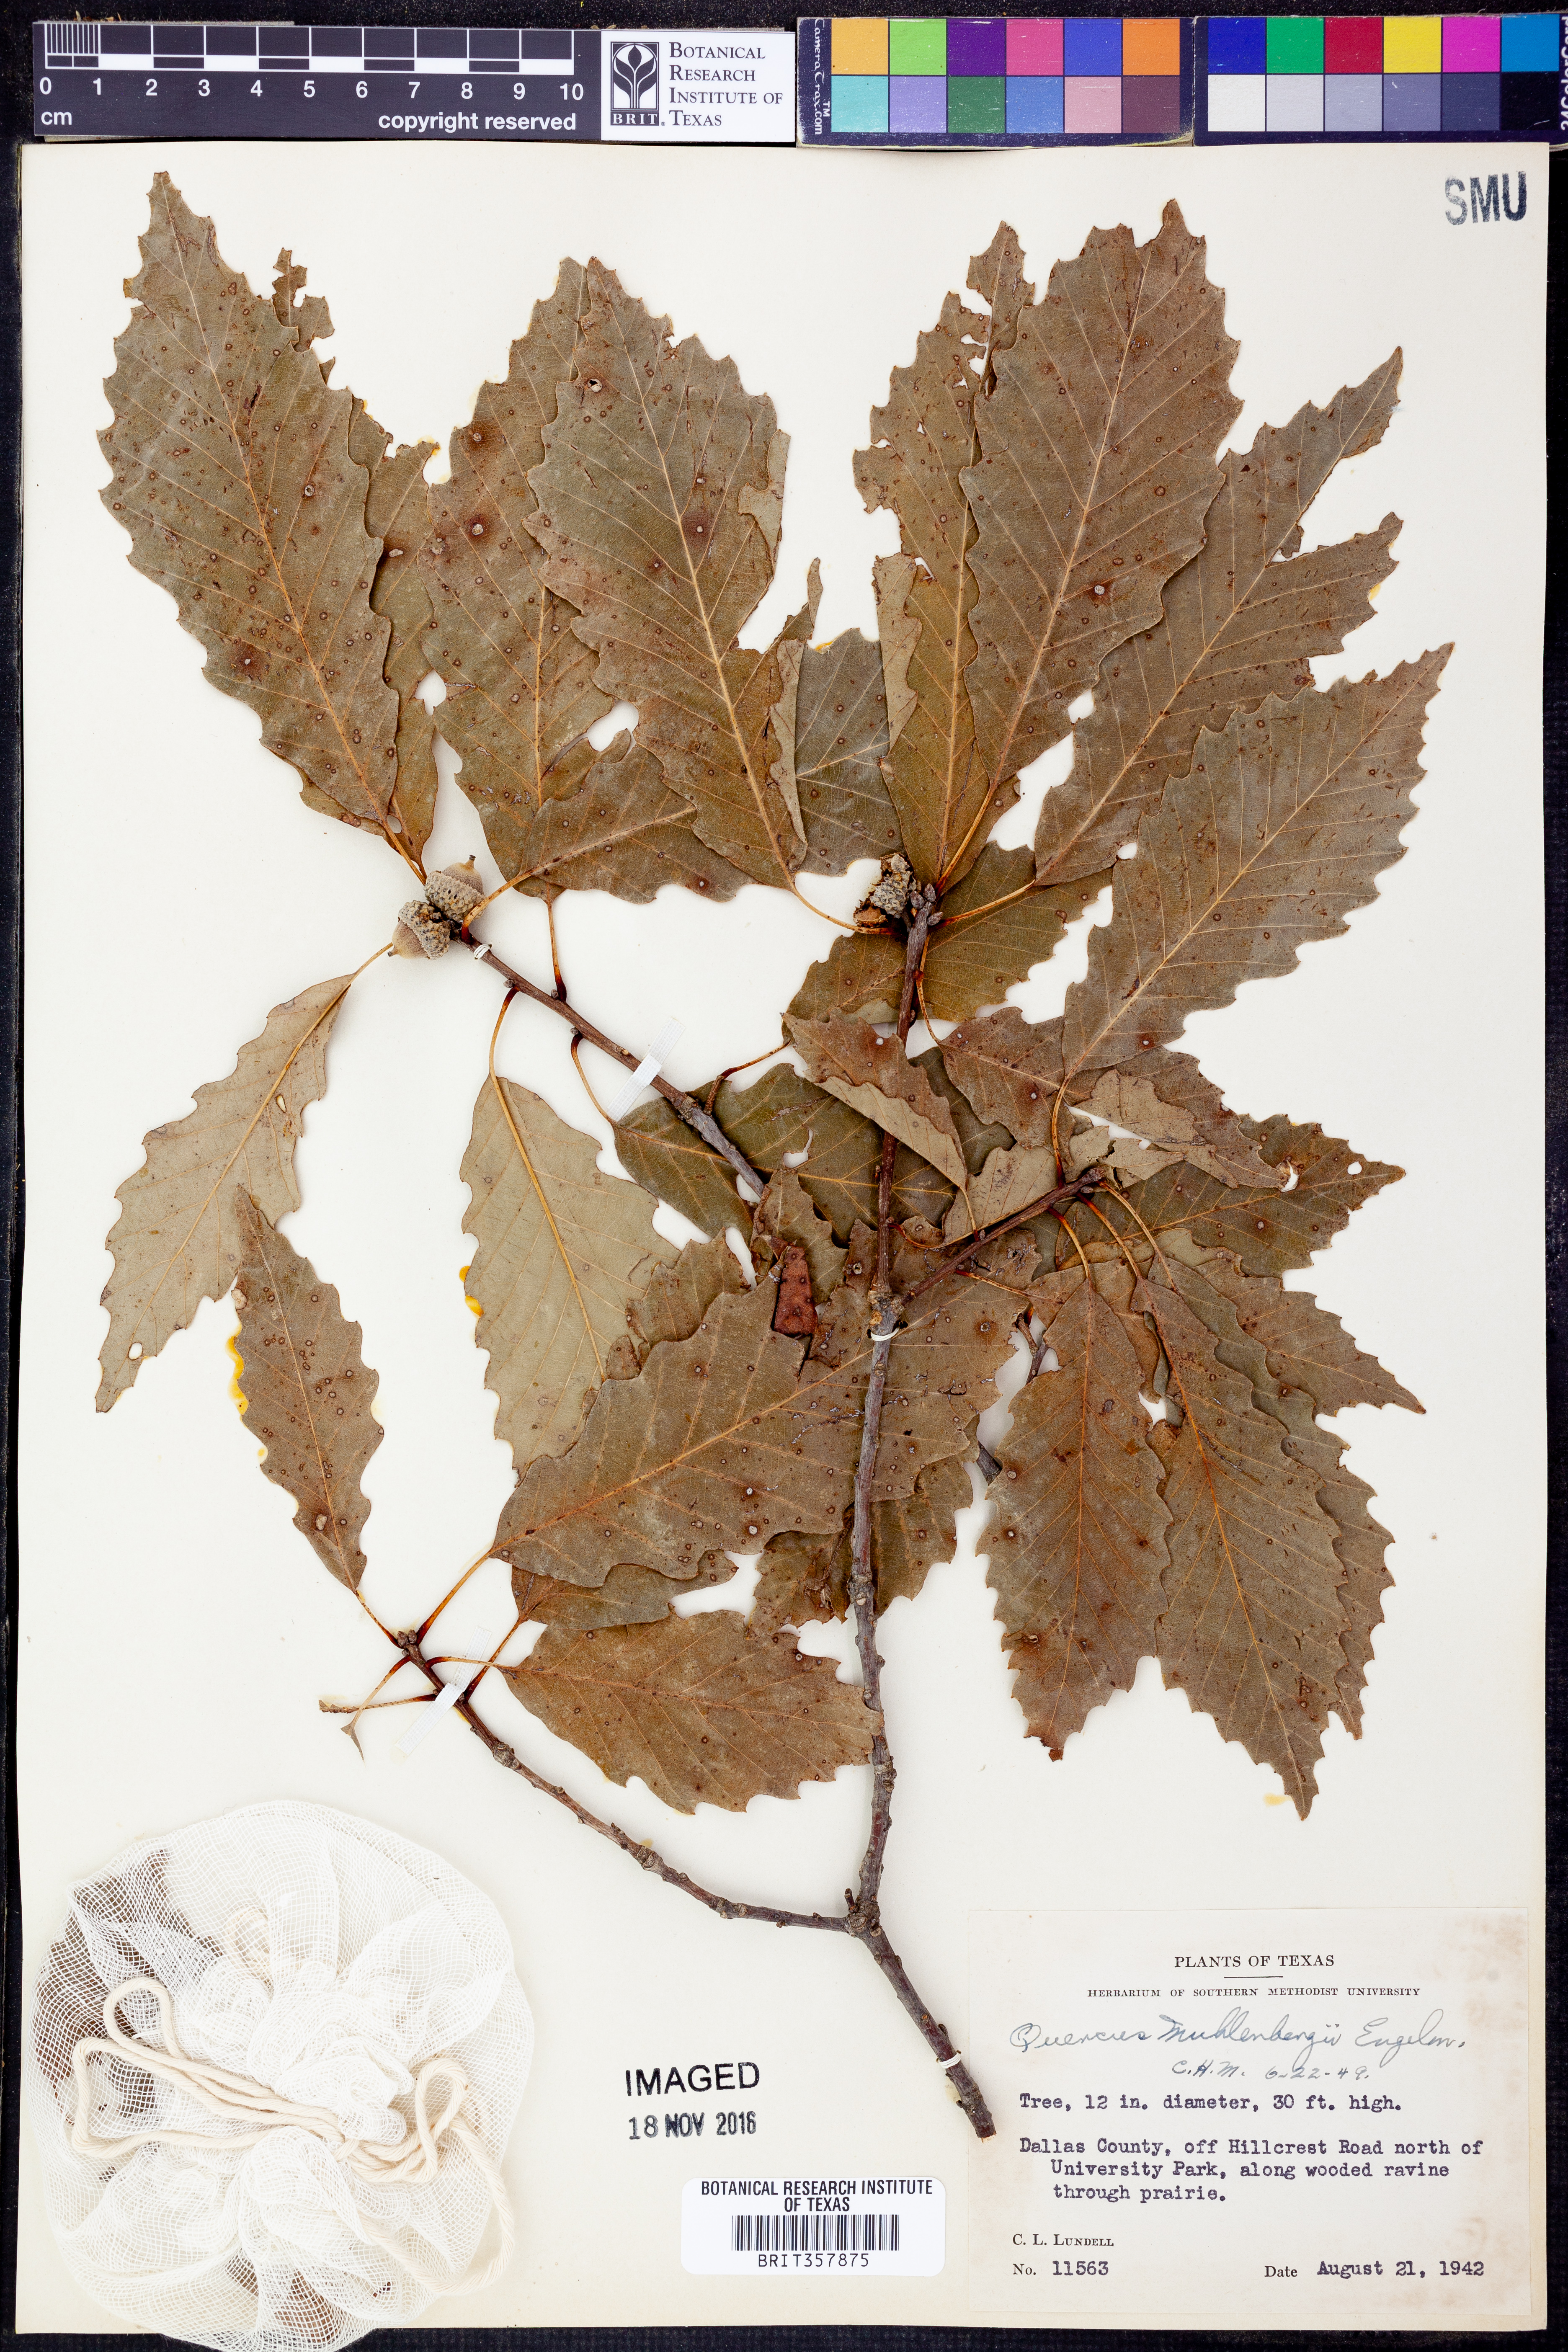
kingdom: Plantae
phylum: Tracheophyta
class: Magnoliopsida
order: Fagales
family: Fagaceae
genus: Quercus
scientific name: Quercus muehlenbergii
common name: Chinkapin oak
